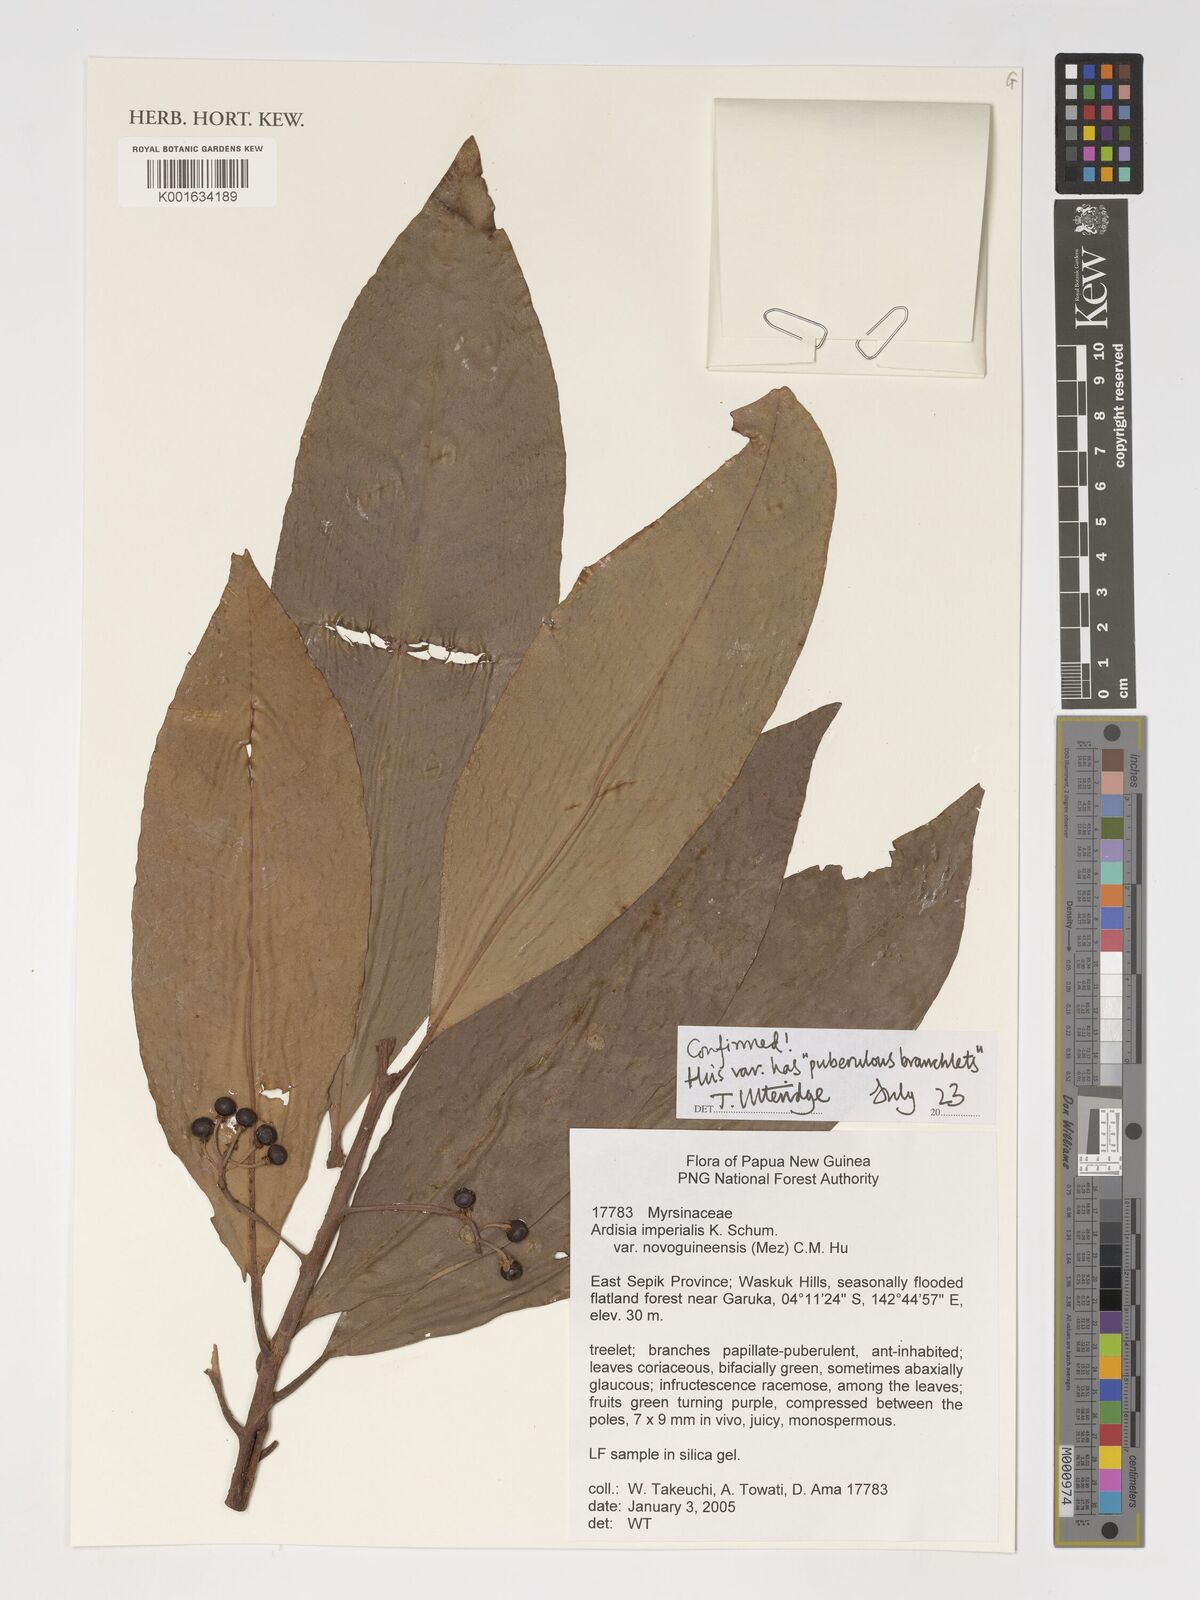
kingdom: Plantae
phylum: Tracheophyta
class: Magnoliopsida
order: Ericales
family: Primulaceae
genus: Ardisia
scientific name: Ardisia imperialis
